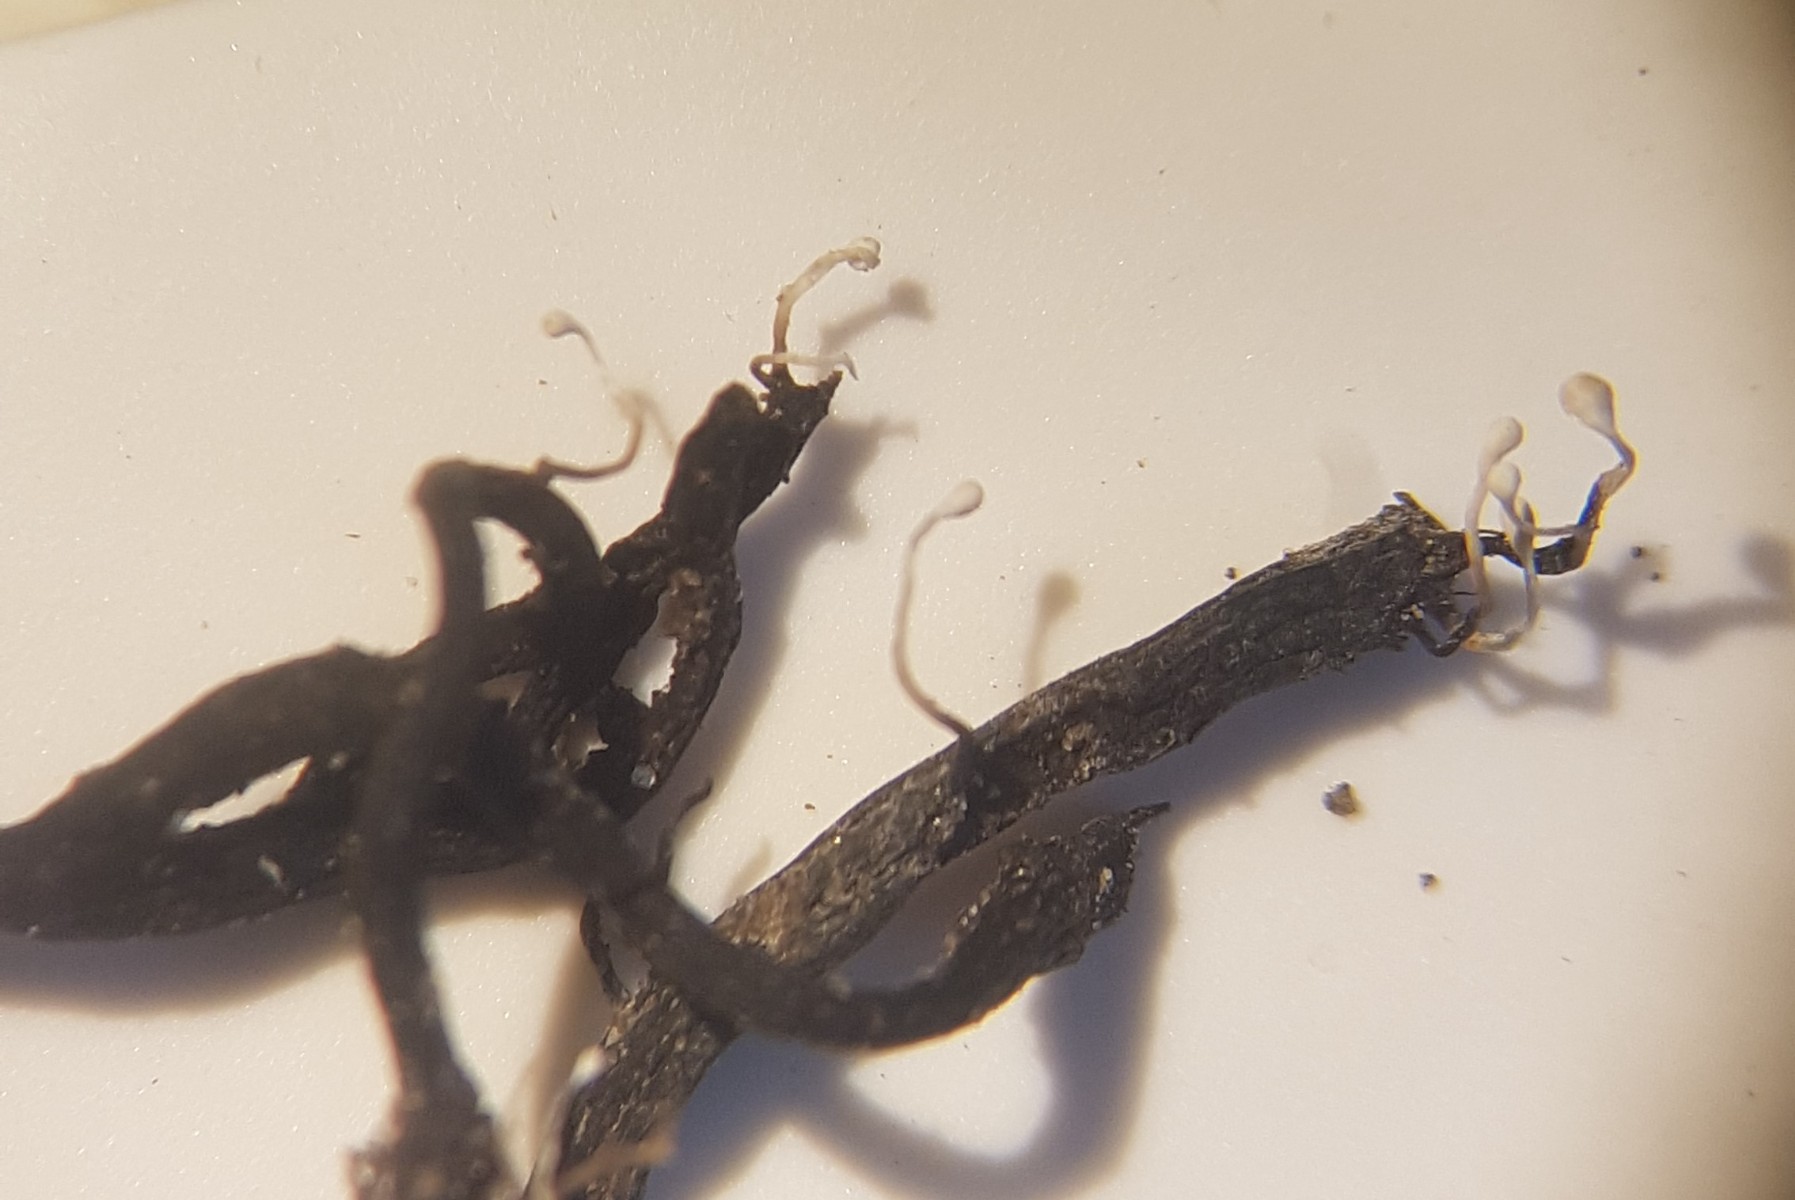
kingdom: Fungi
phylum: Ascomycota
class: Sordariomycetes
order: Hypocreales
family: Ophiocordycipitaceae
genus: Ophiocordyceps
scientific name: Ophiocordyceps entomorrhiza
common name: grå snyltekølle
